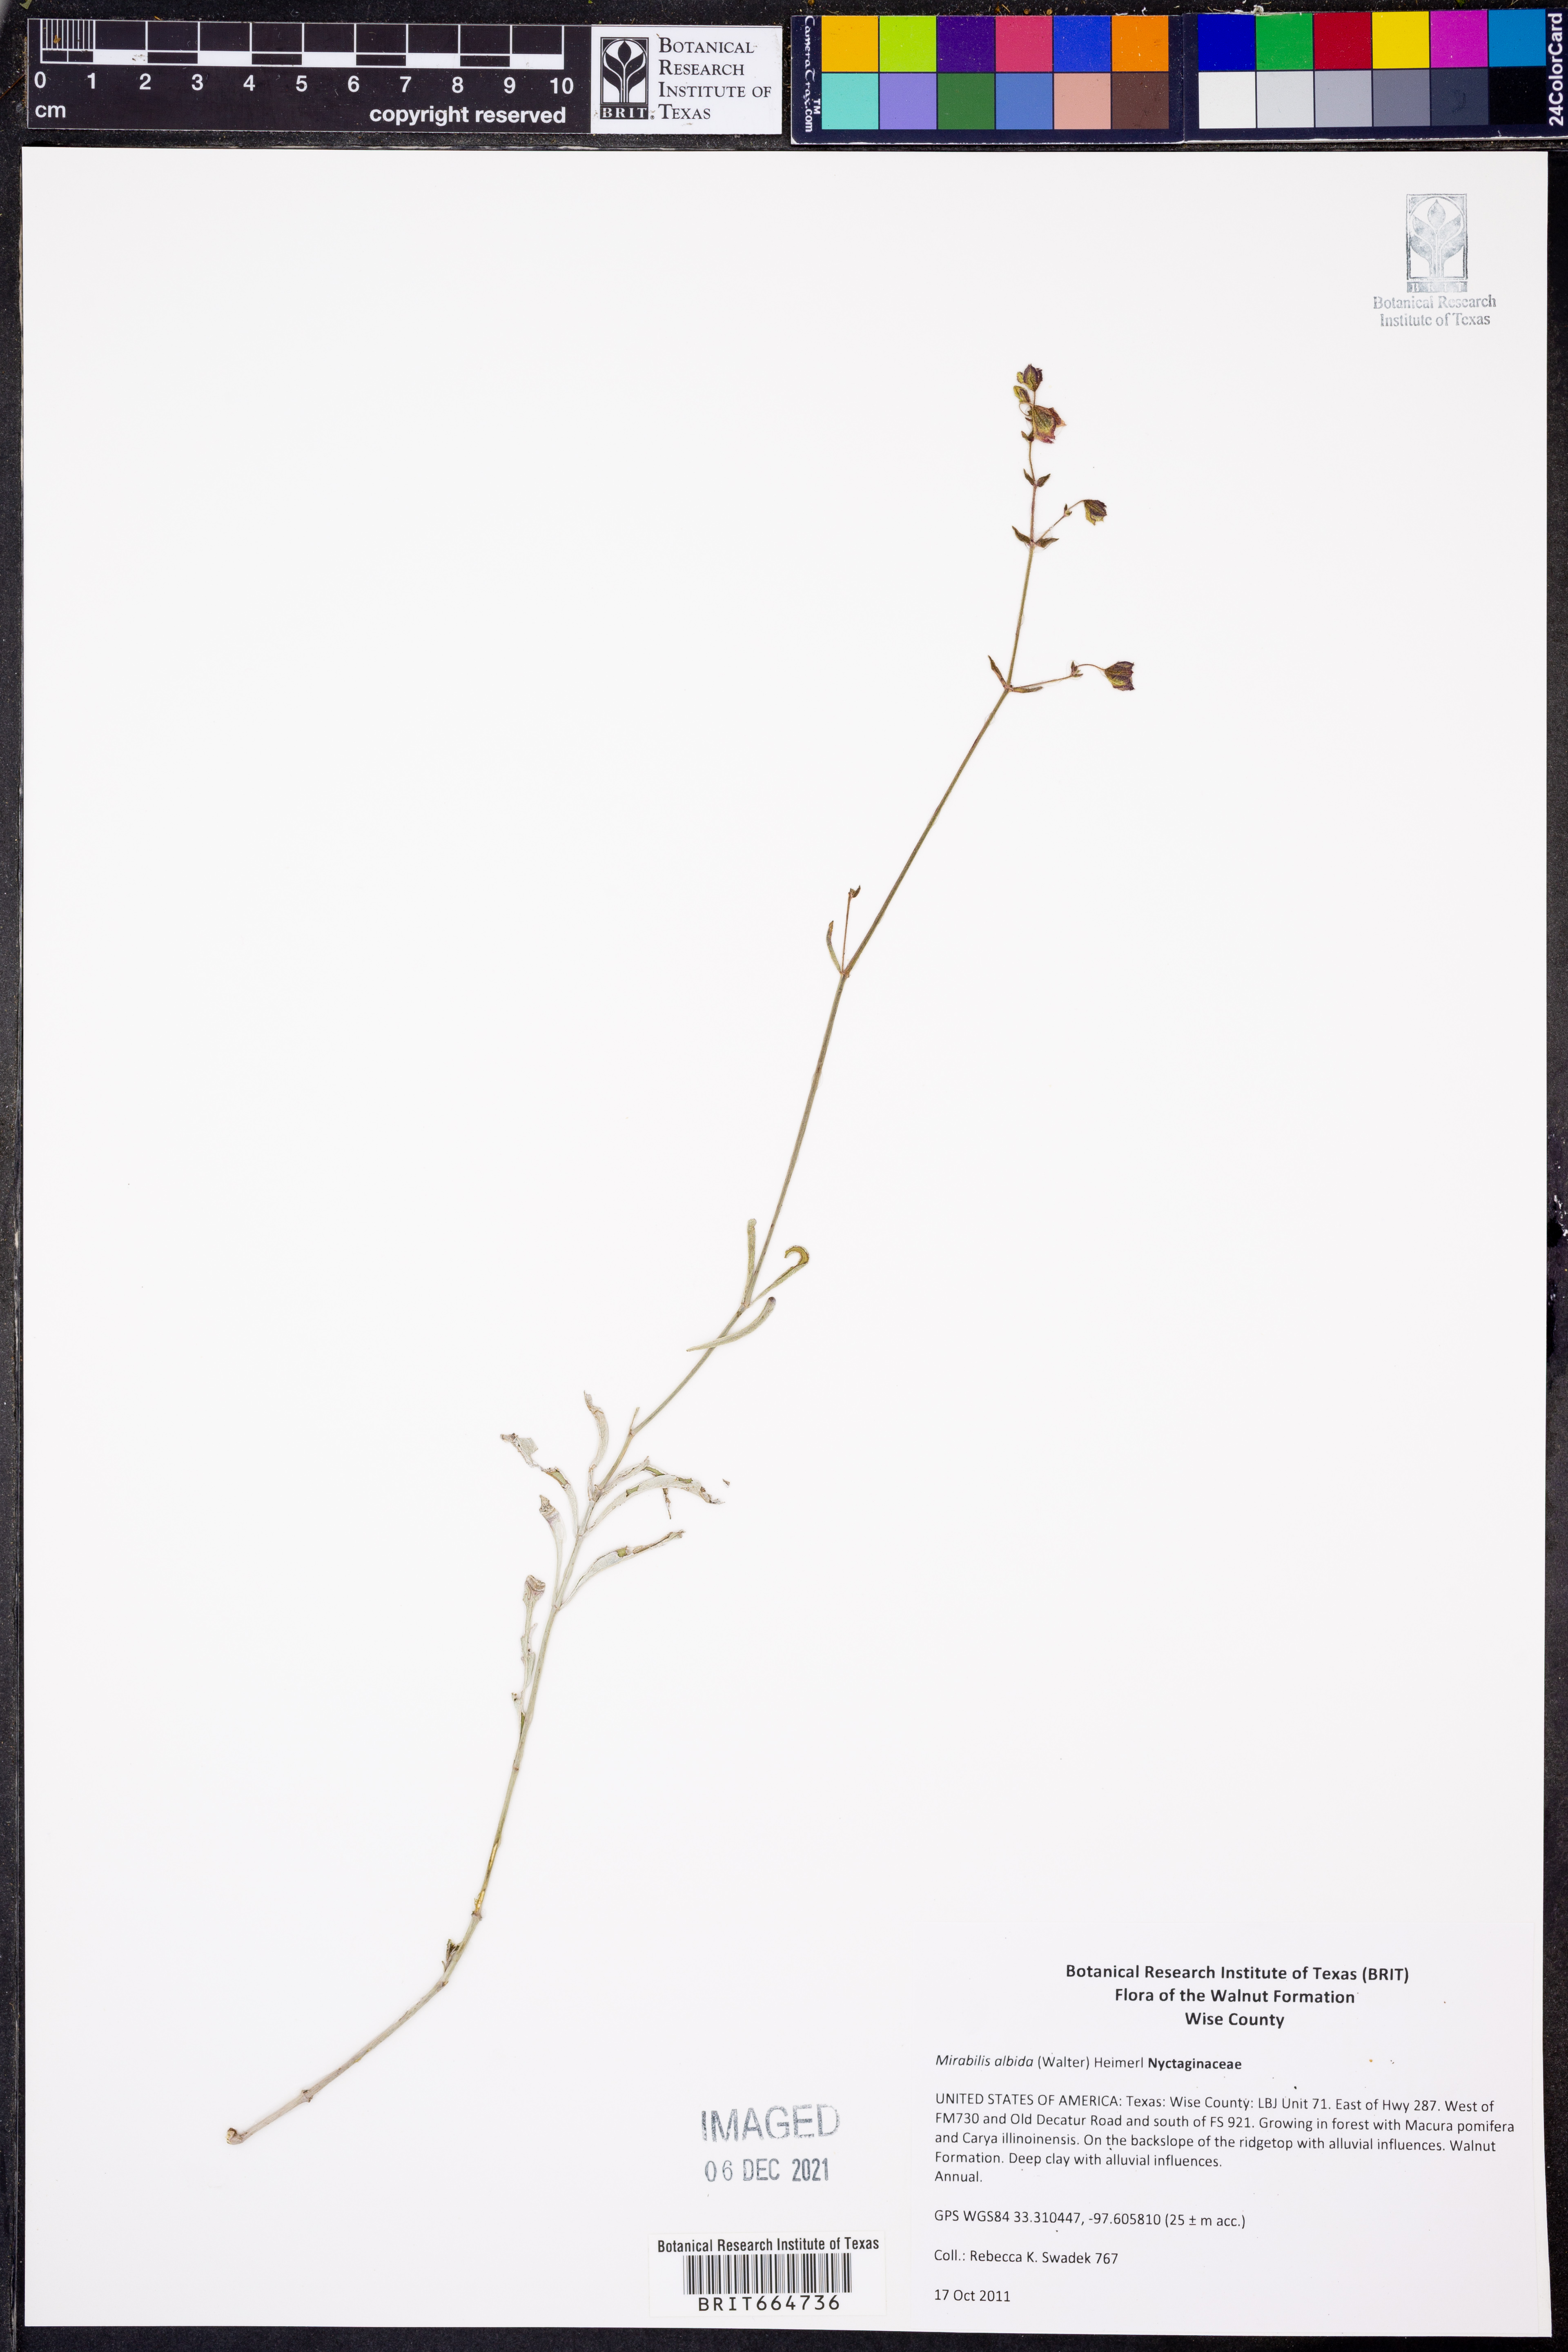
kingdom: Plantae
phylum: Tracheophyta
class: Magnoliopsida
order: Caryophyllales
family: Nyctaginaceae
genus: Mirabilis
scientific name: Mirabilis albida
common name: Hairy four-o'clock
